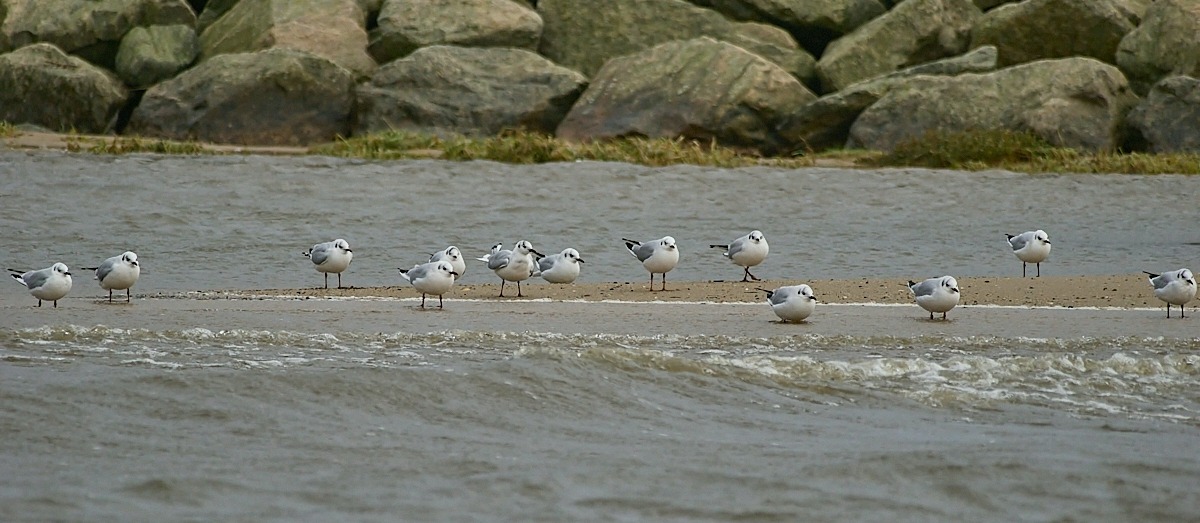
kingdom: Animalia
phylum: Chordata
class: Aves
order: Charadriiformes
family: Laridae
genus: Chroicocephalus
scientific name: Chroicocephalus ridibundus
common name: Hættemåge
